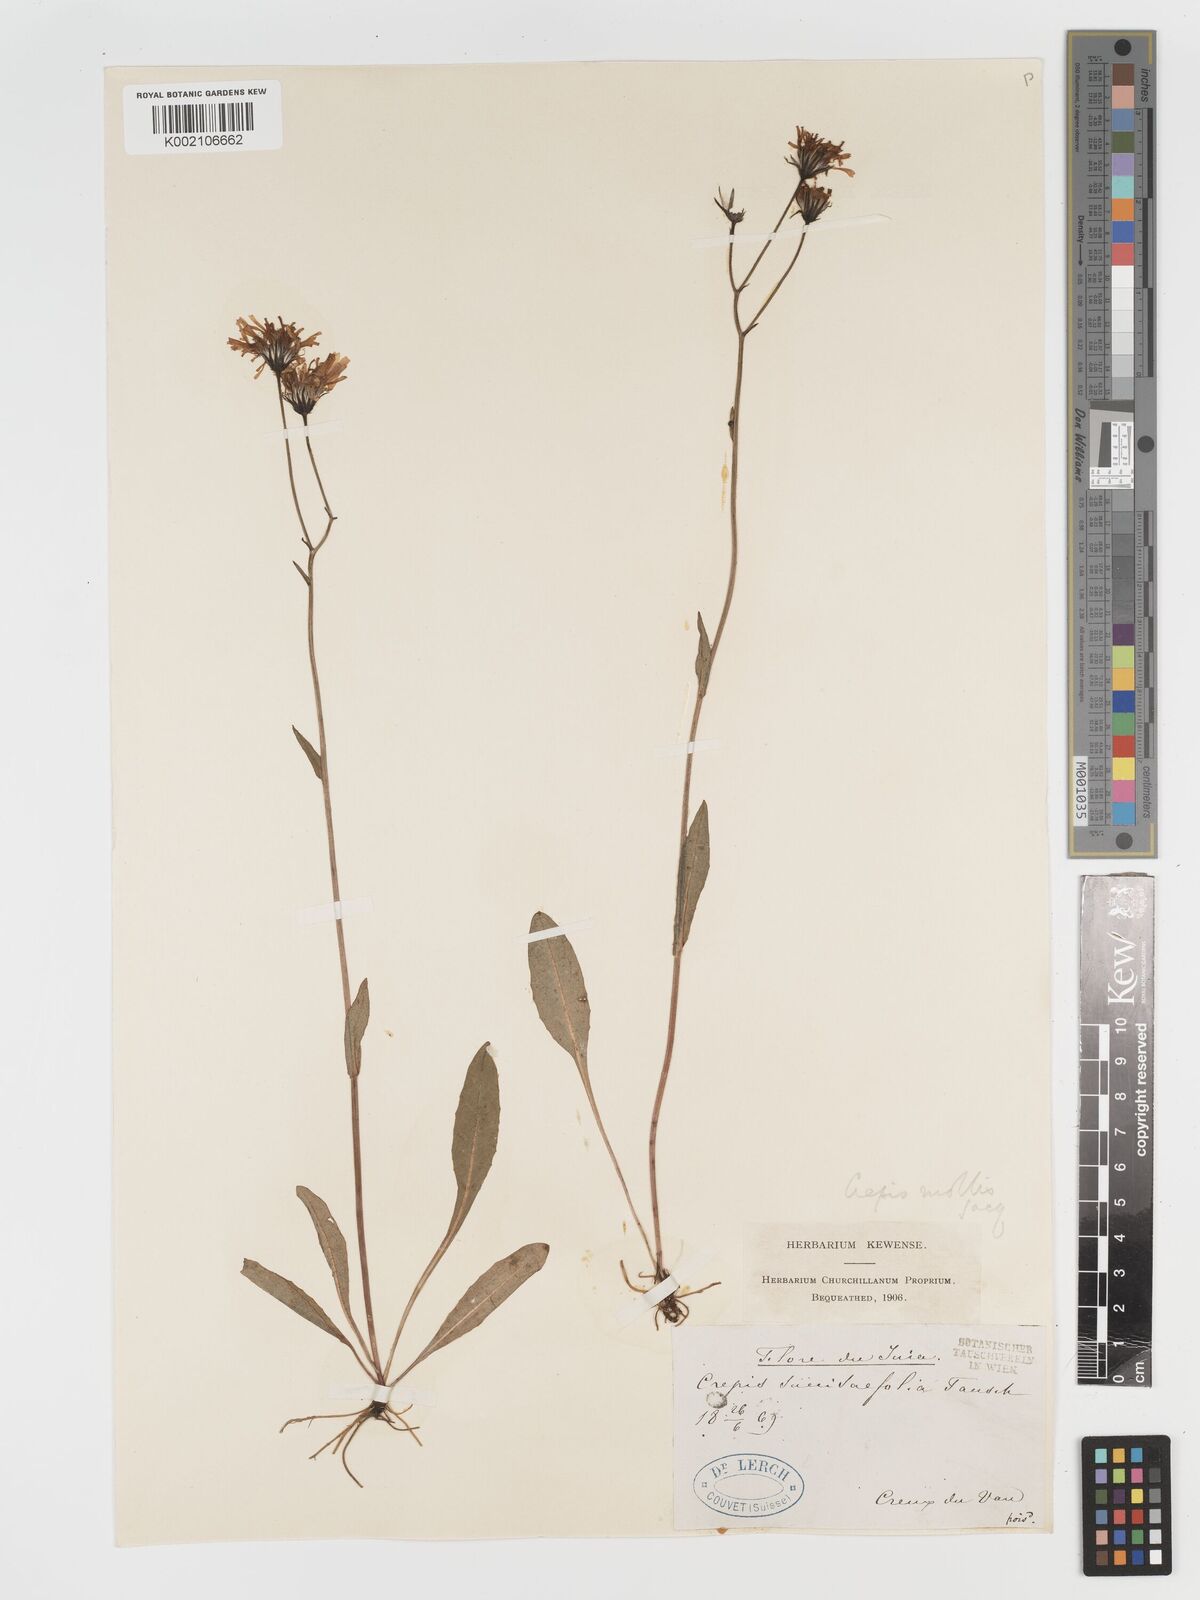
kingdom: Plantae
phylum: Tracheophyta
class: Magnoliopsida
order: Asterales
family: Asteraceae
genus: Crepis
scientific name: Crepis mollis
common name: Northern hawk's-beard
